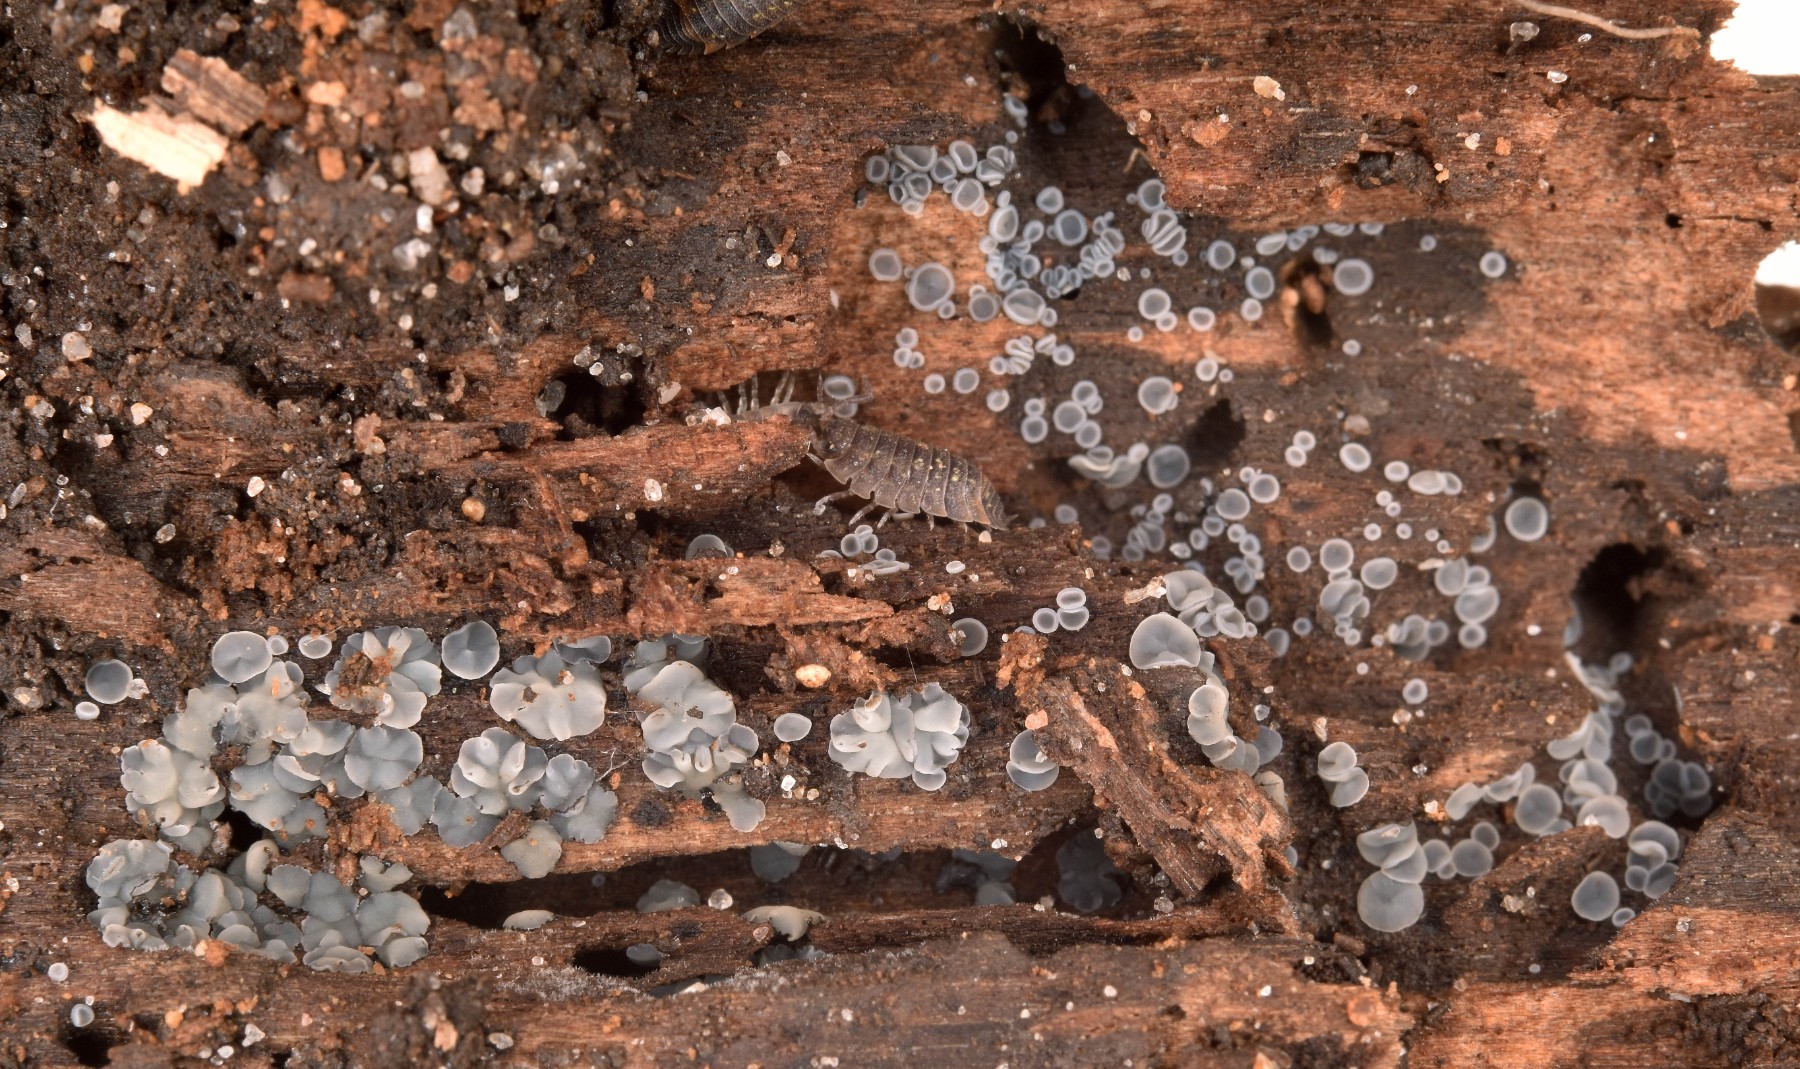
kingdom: Fungi
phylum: Ascomycota
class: Leotiomycetes
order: Helotiales
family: Mollisiaceae
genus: Mollisia
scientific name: Mollisia
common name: gråskive
